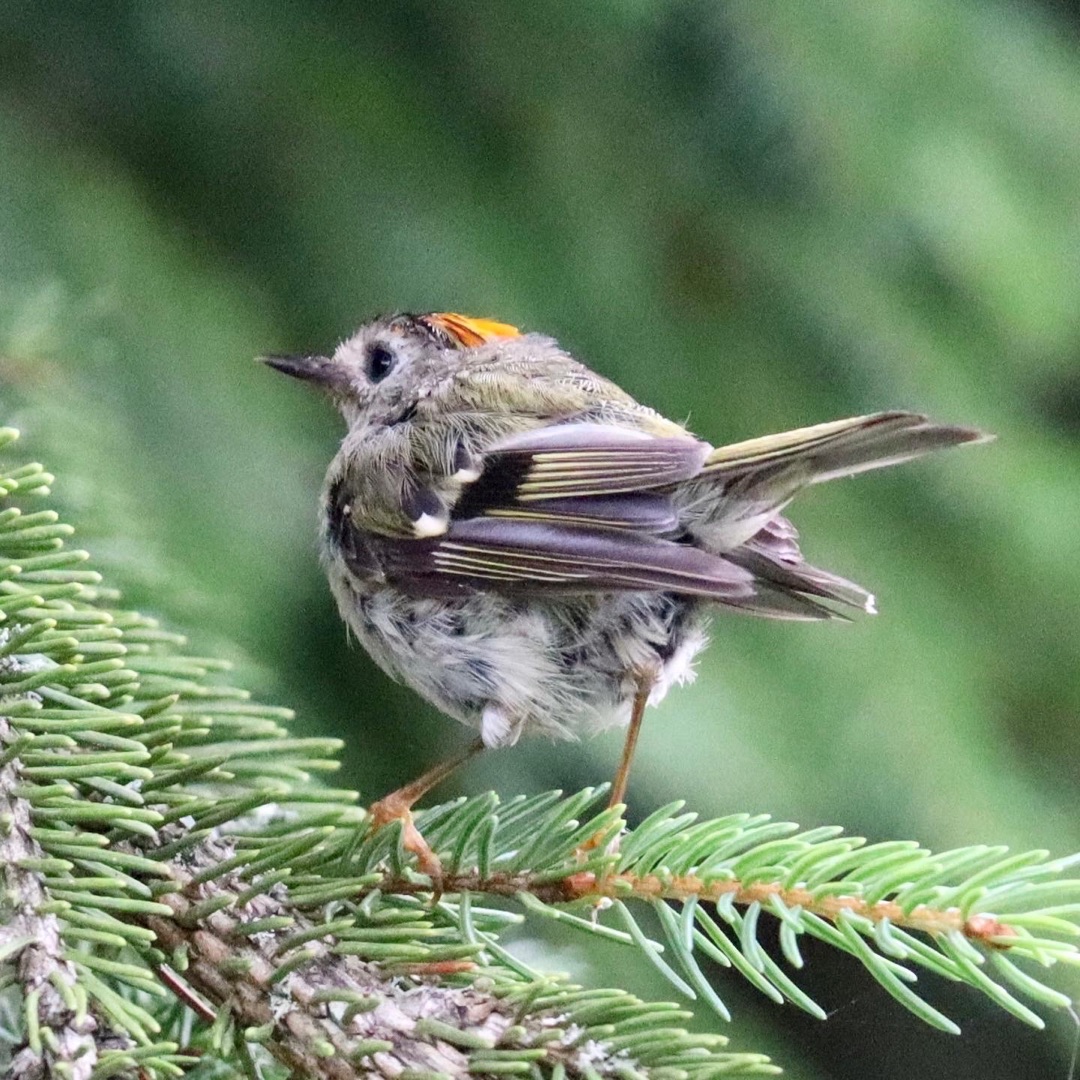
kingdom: Animalia
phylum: Chordata
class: Aves
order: Passeriformes
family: Regulidae
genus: Regulus
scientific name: Regulus regulus
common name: Fuglekonge
